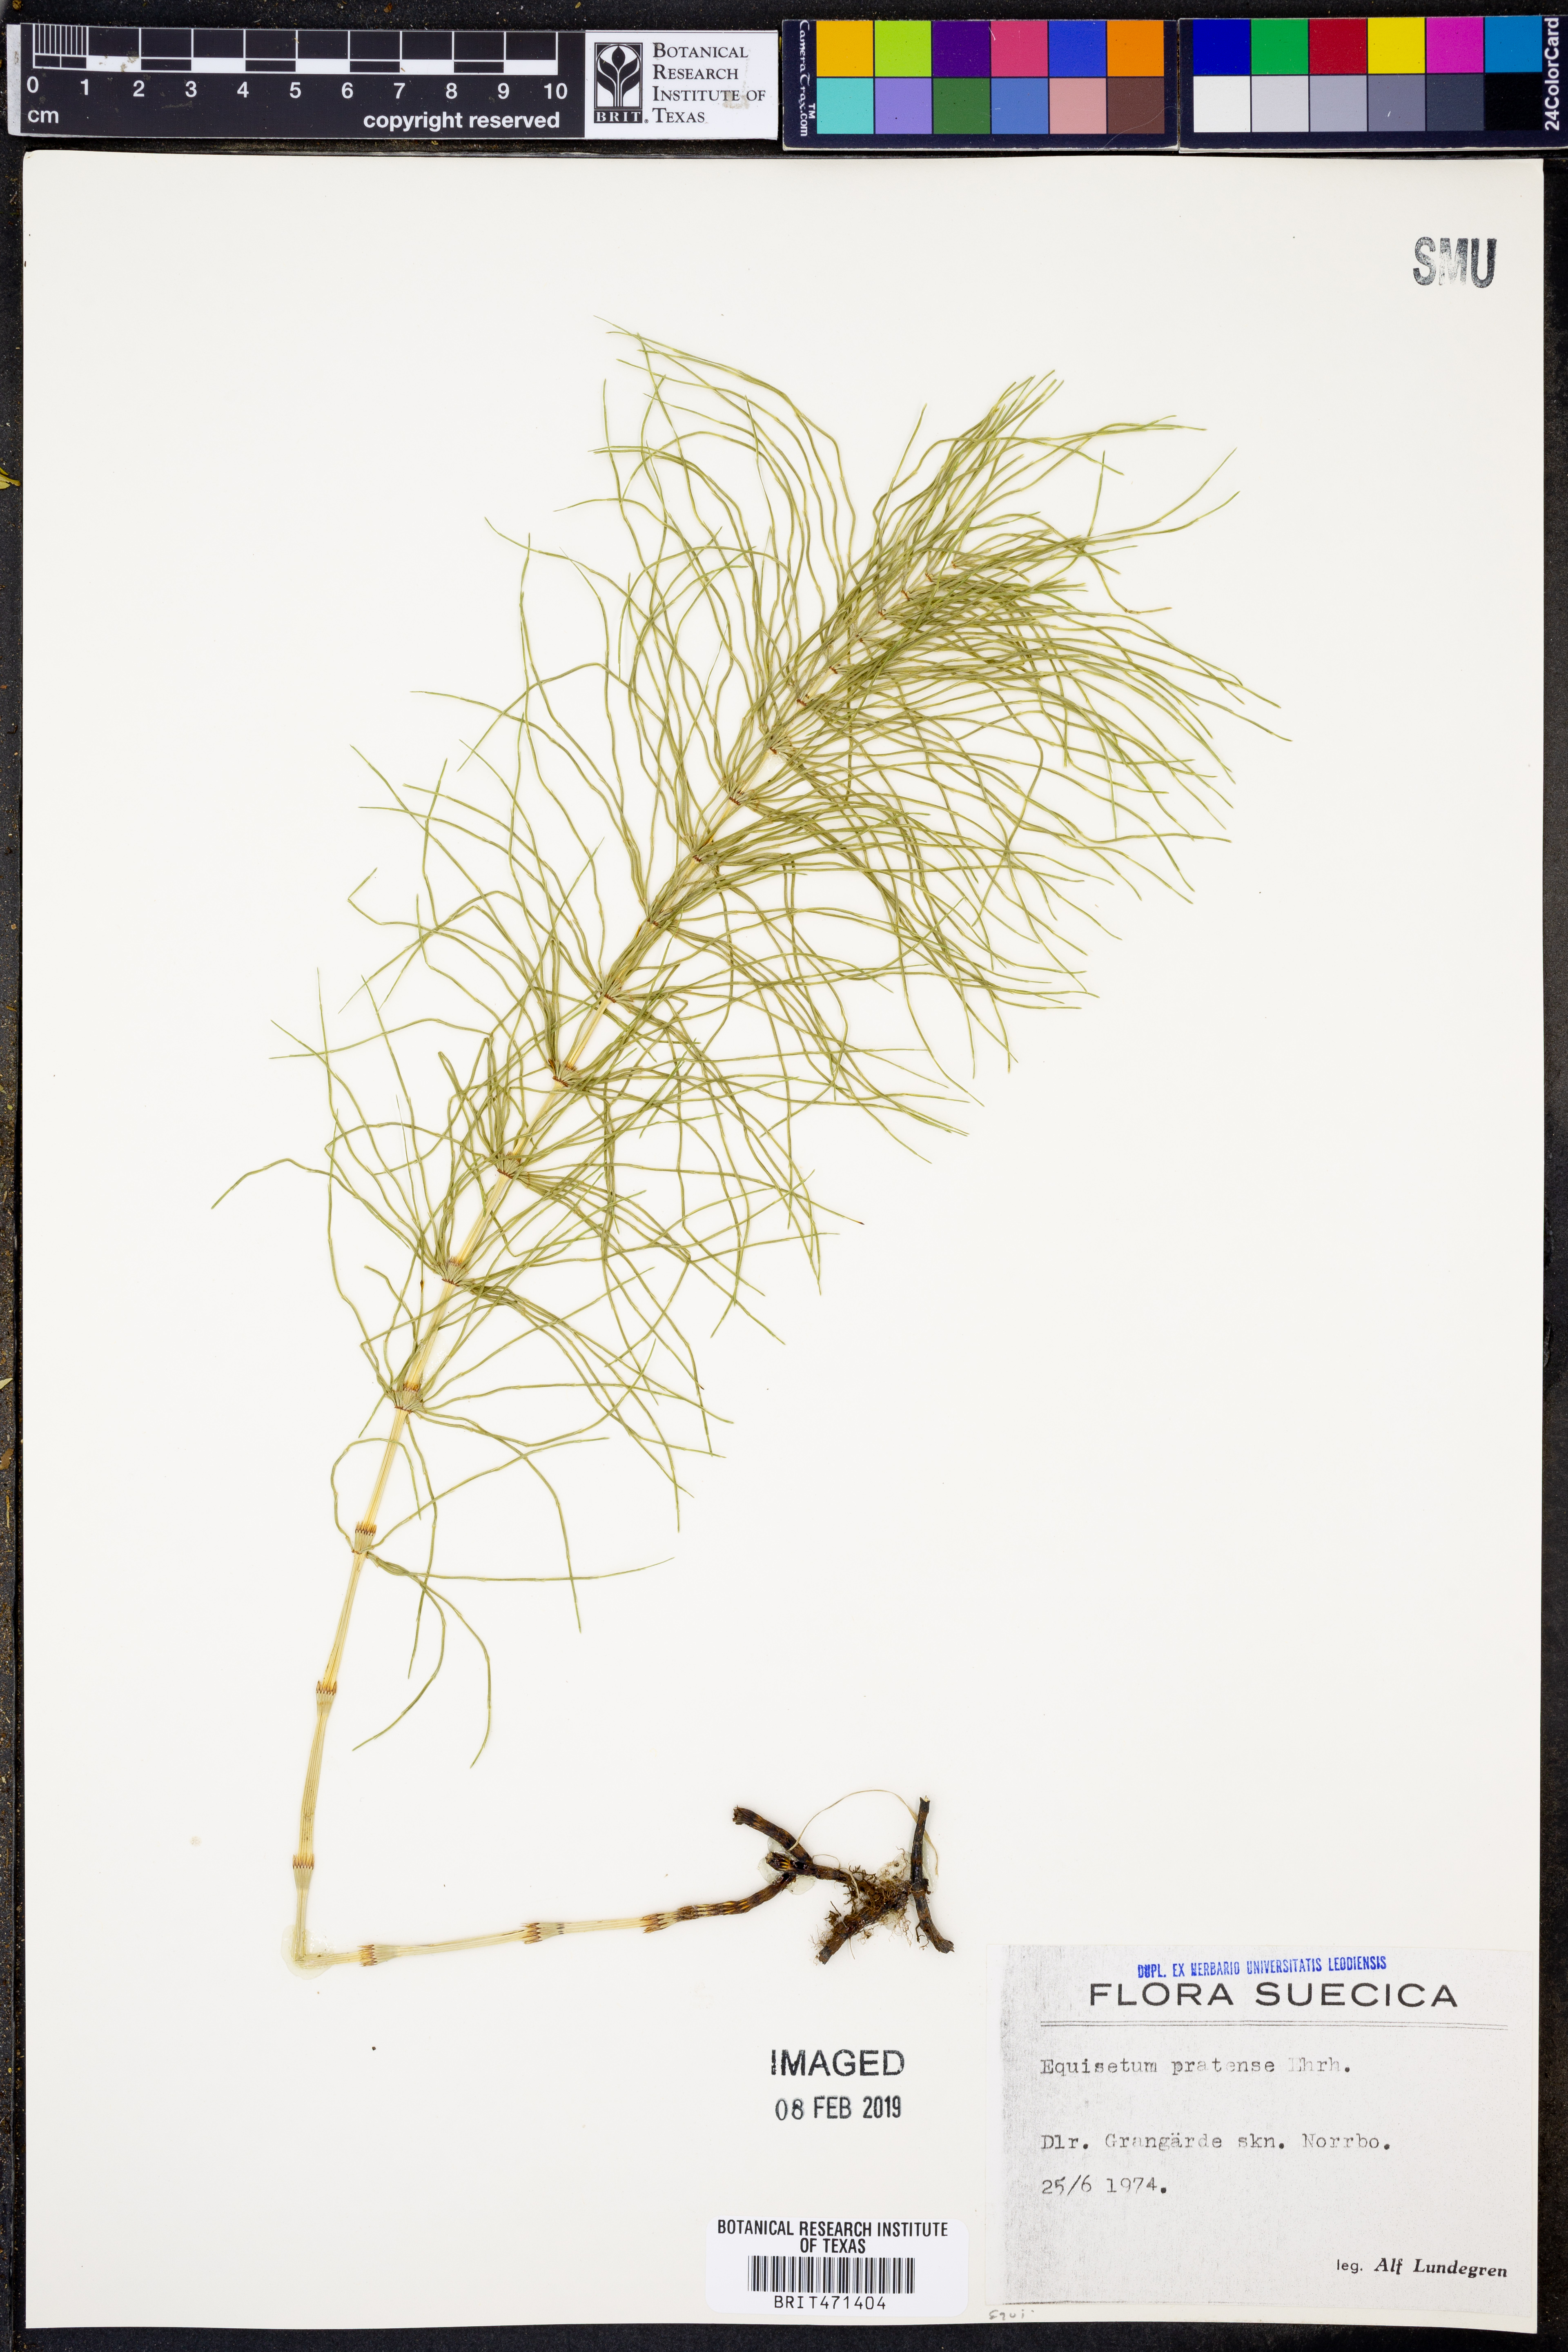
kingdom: Plantae
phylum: Tracheophyta
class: Polypodiopsida
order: Equisetales
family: Equisetaceae
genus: Equisetum
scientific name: Equisetum pratense
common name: Meadow horsetail
